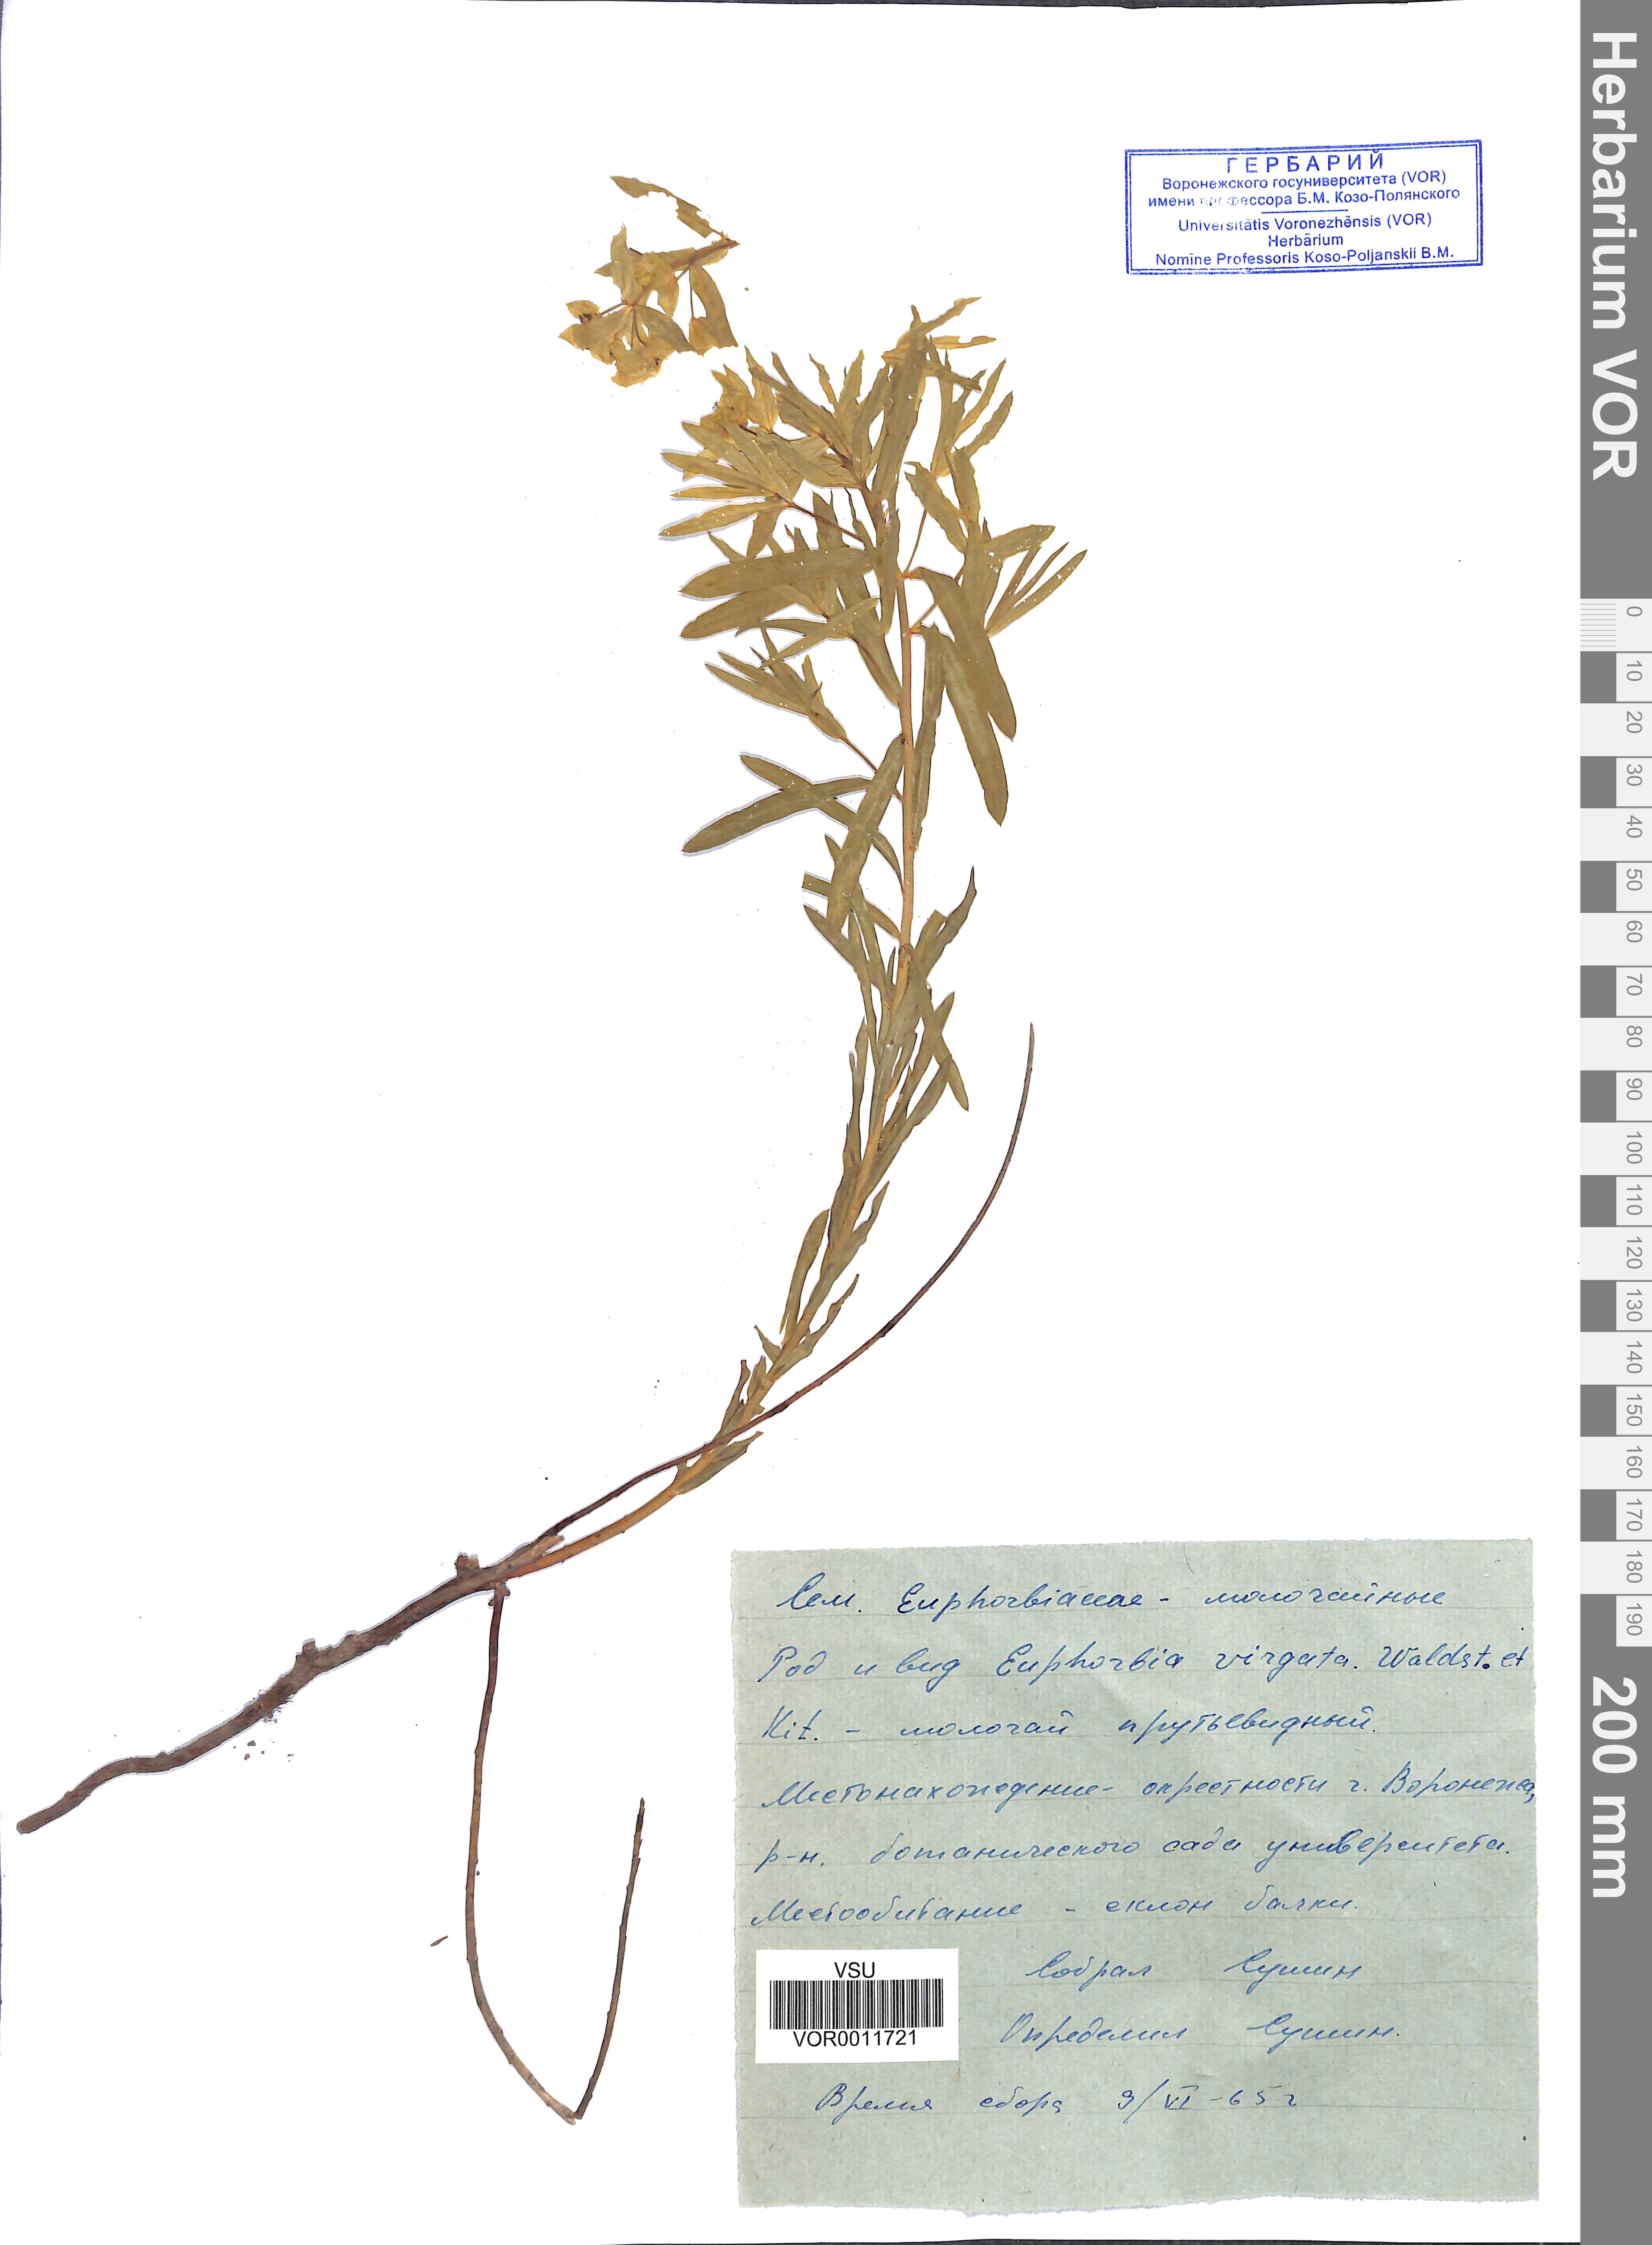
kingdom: Plantae
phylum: Tracheophyta
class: Magnoliopsida
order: Malpighiales
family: Euphorbiaceae
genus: Euphorbia
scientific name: Euphorbia virgata
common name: Leafy spurge
